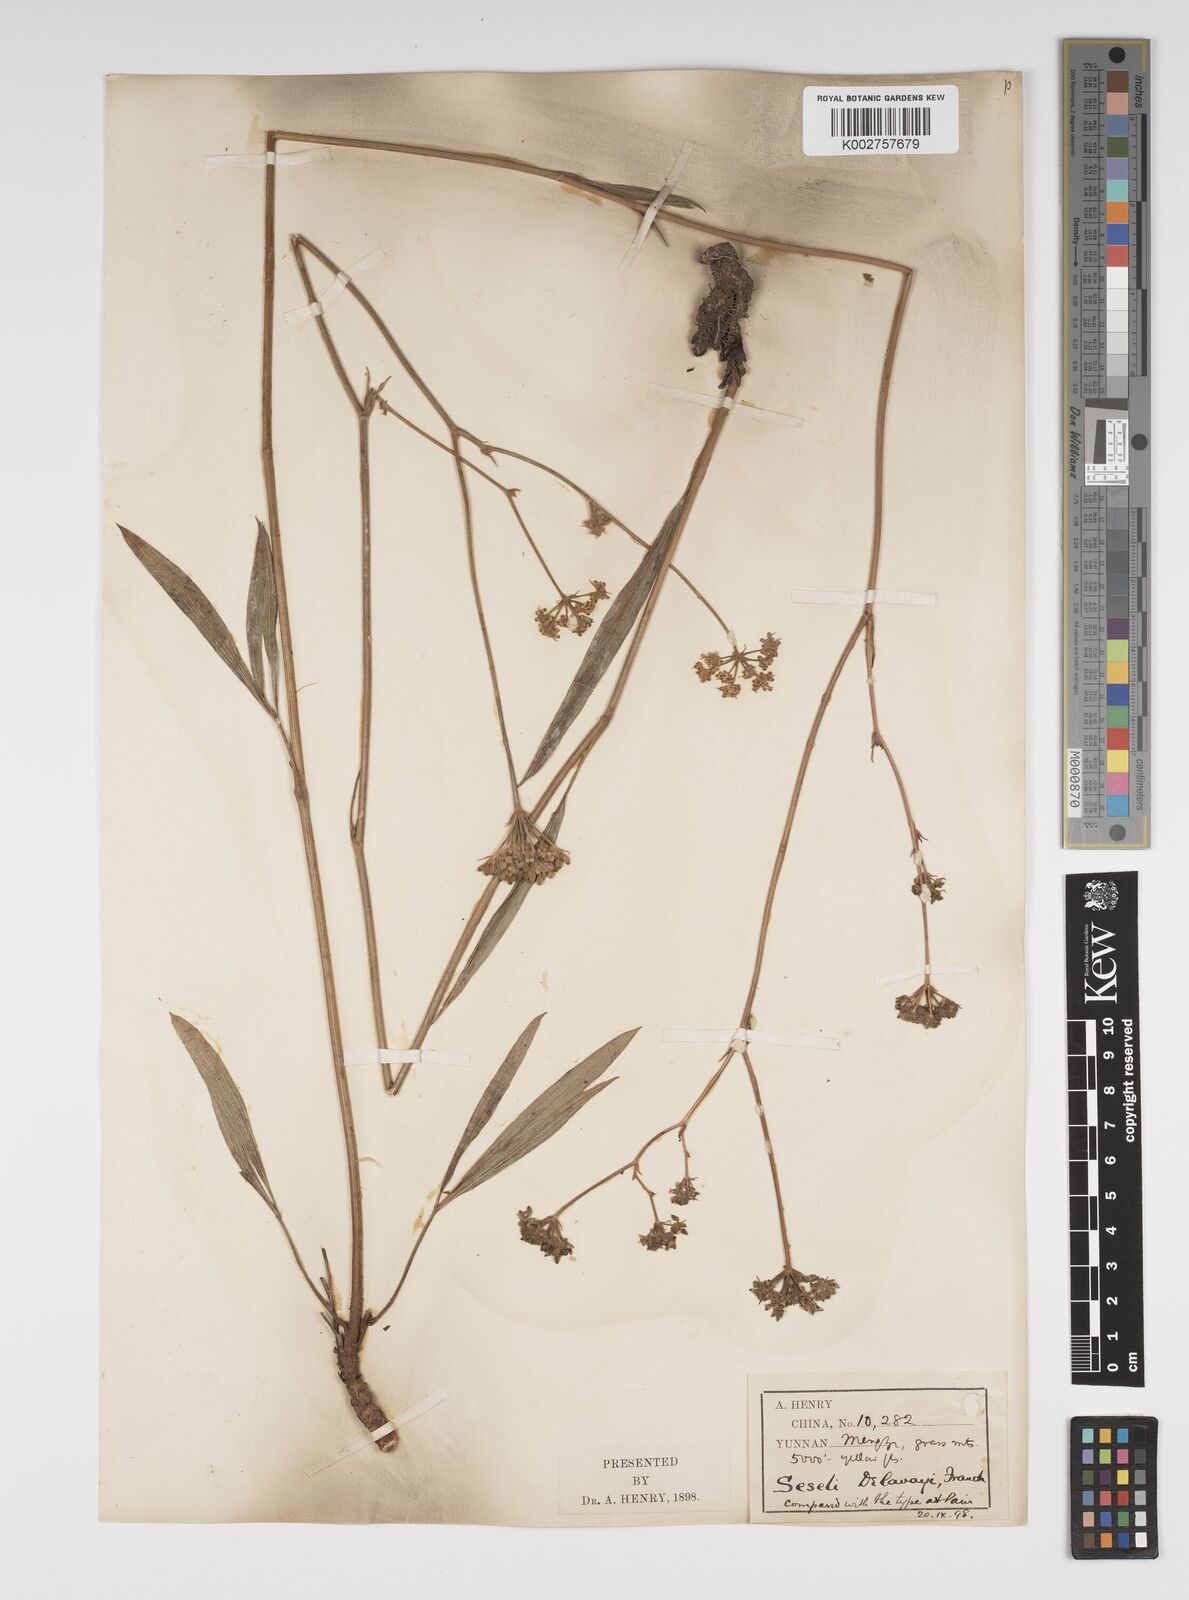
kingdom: Plantae
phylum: Tracheophyta
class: Magnoliopsida
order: Apiales
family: Apiaceae
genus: Seseli
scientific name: Seseli delavayi
